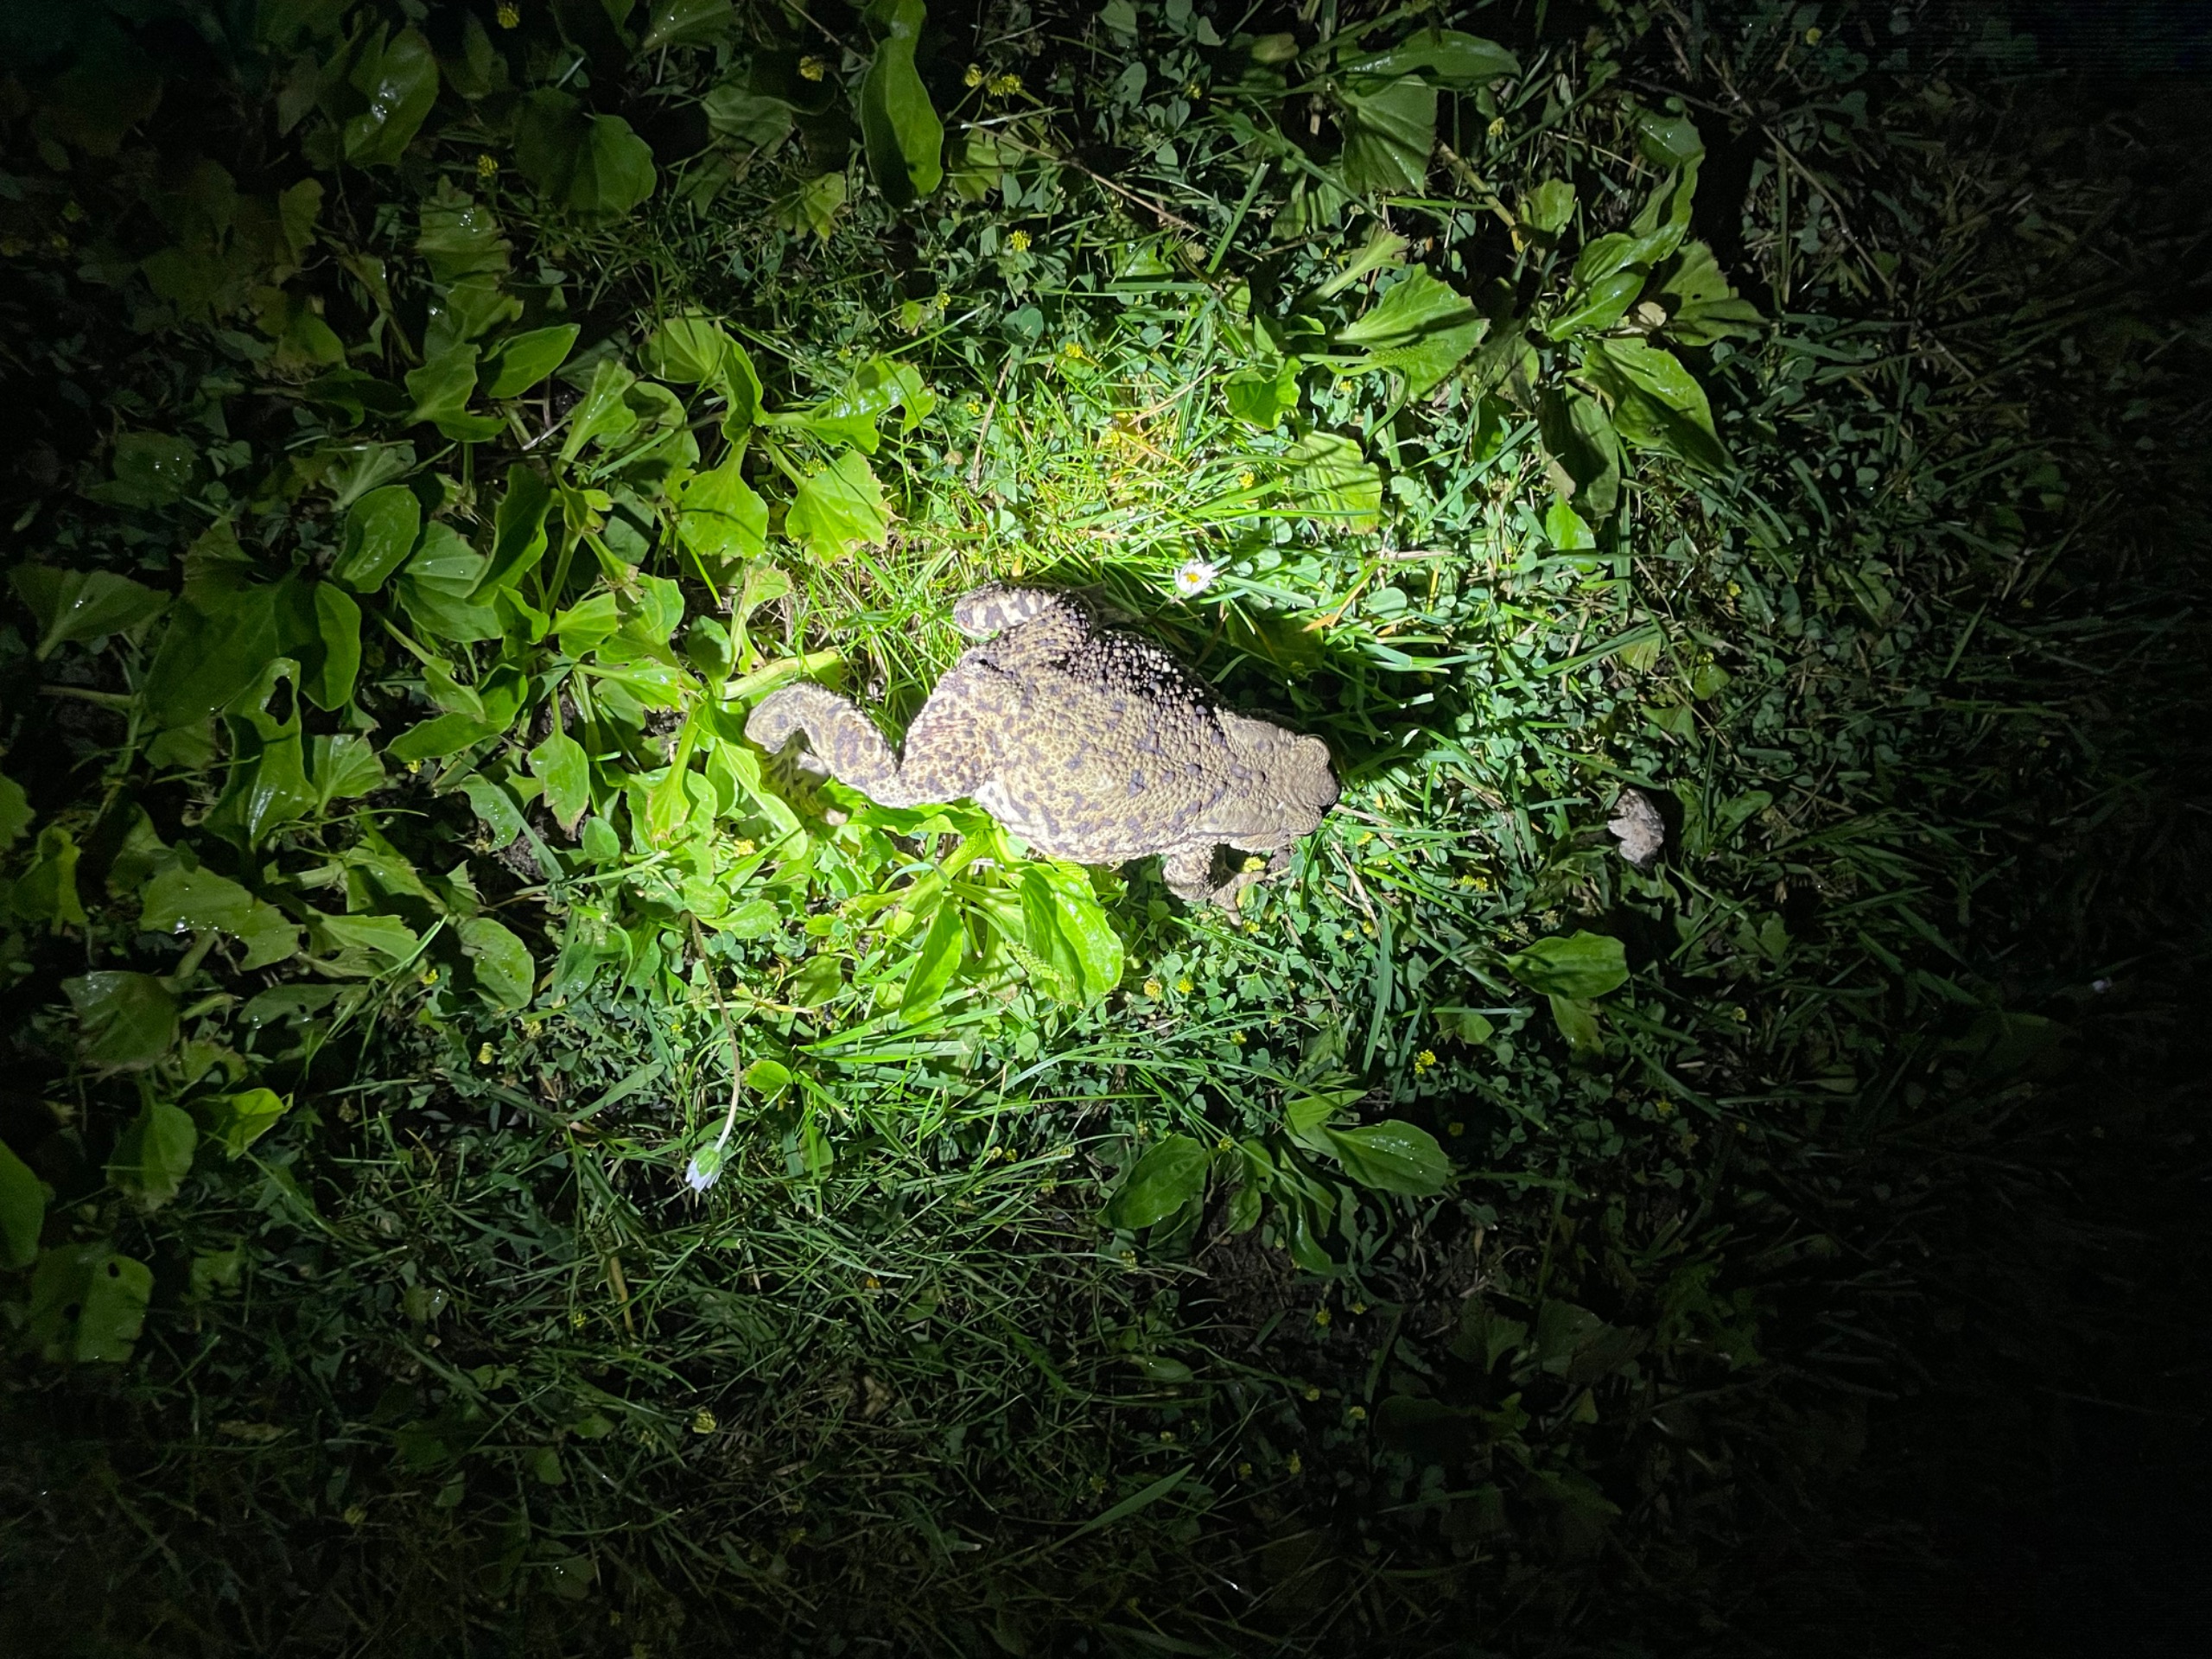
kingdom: Animalia
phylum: Chordata
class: Amphibia
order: Anura
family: Bufonidae
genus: Bufo
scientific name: Bufo bufo
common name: Skrubtudse
